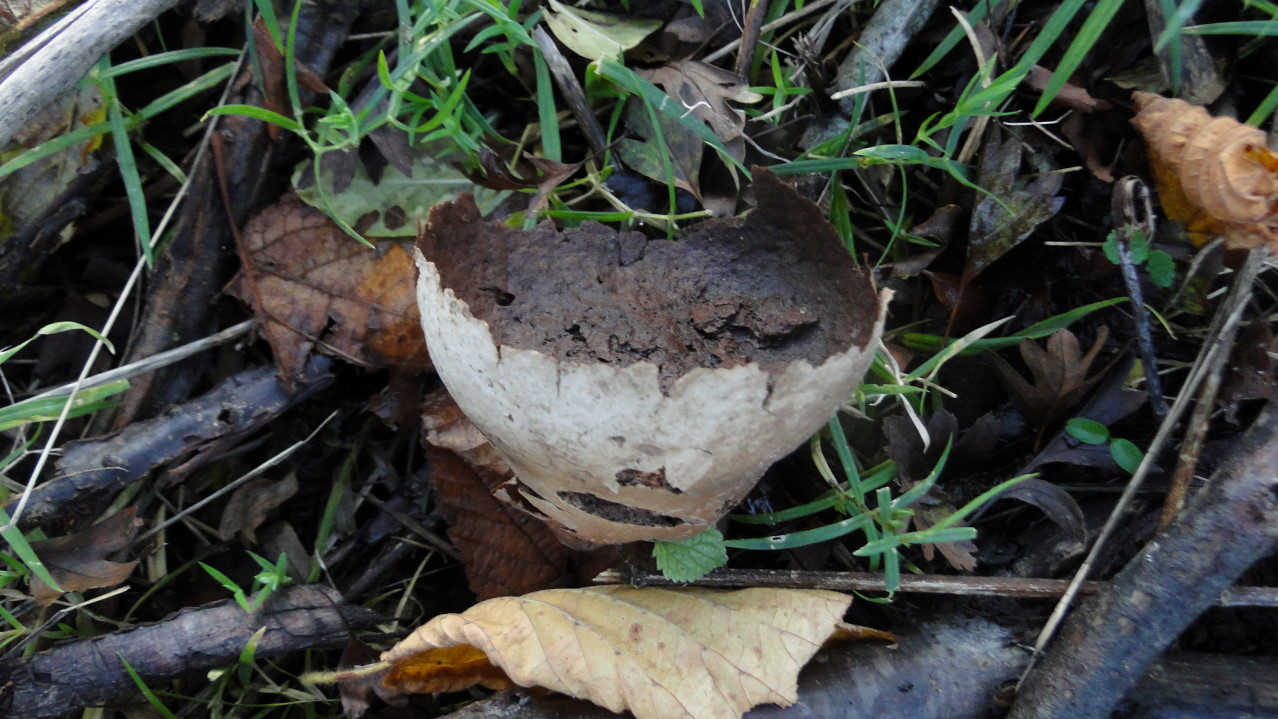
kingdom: Fungi
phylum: Basidiomycota
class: Agaricomycetes
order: Agaricales
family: Lycoperdaceae
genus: Bovistella
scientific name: Bovistella utriformis
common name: skællet støvbold
